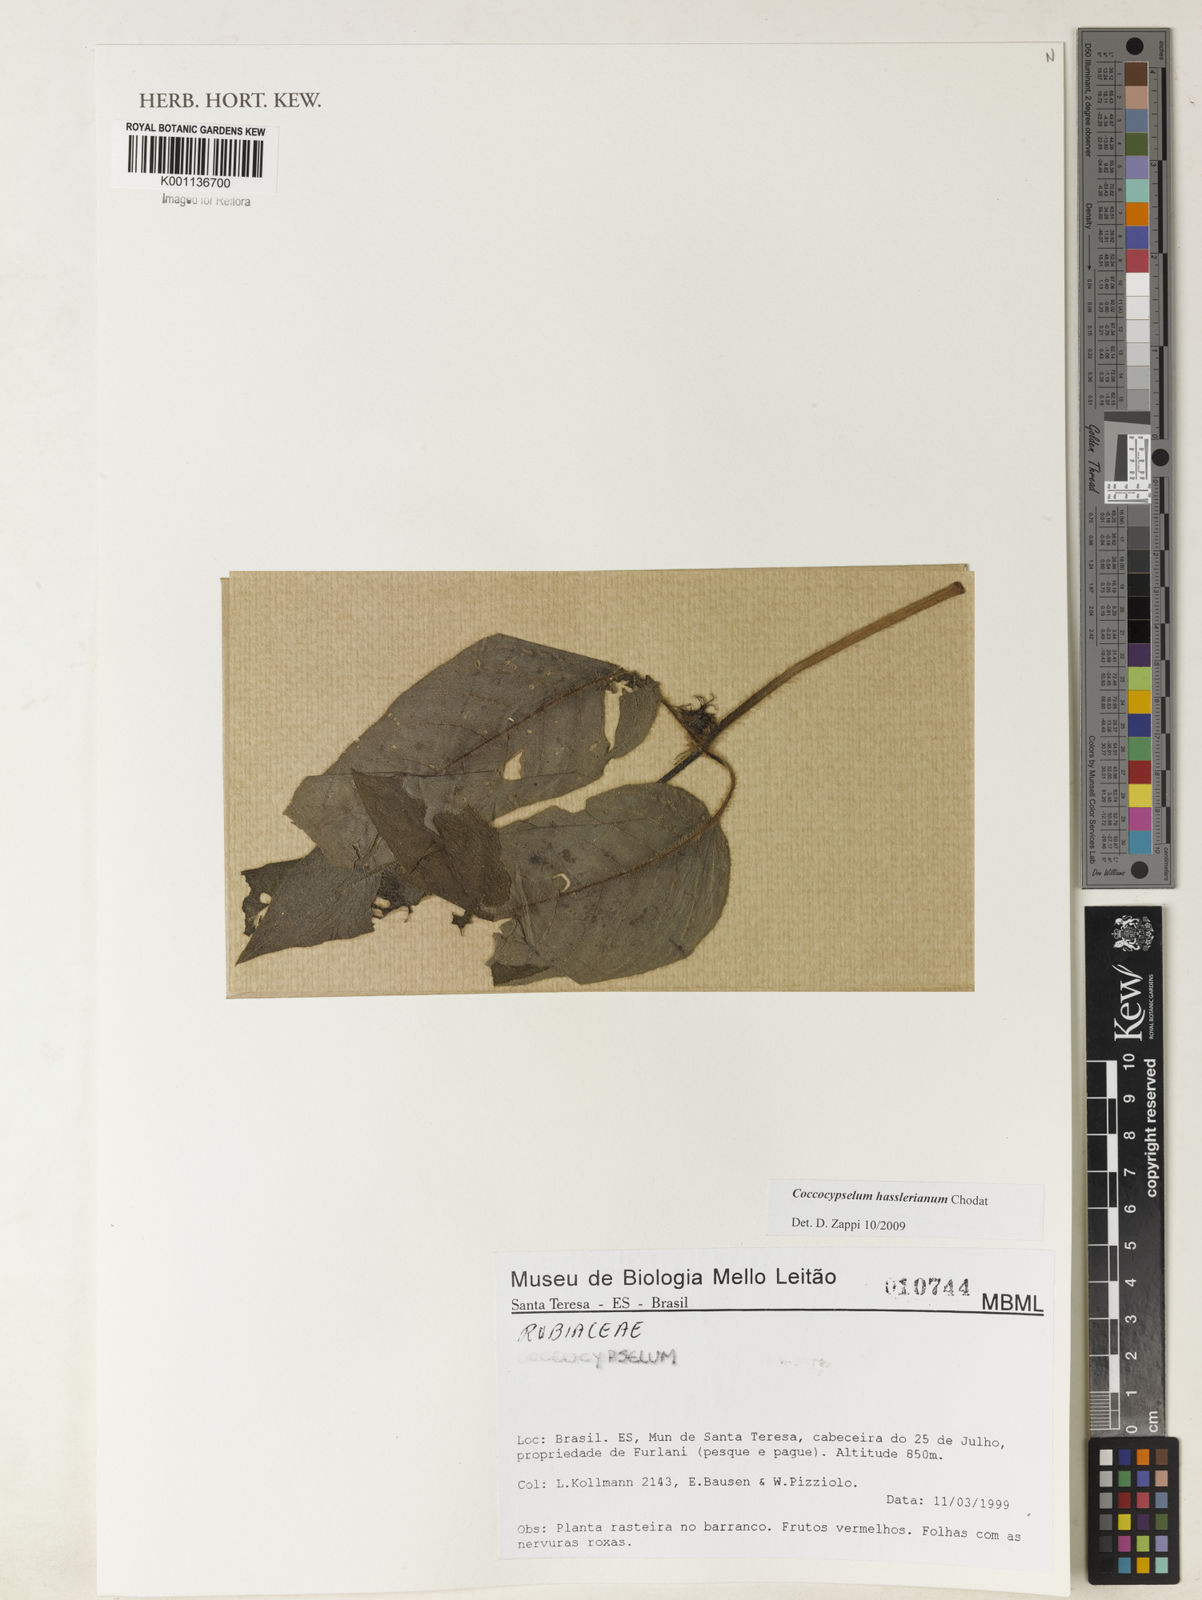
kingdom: Plantae
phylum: Tracheophyta
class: Magnoliopsida
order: Gentianales
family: Rubiaceae
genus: Coccocypselum
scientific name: Coccocypselum hasslerianum
